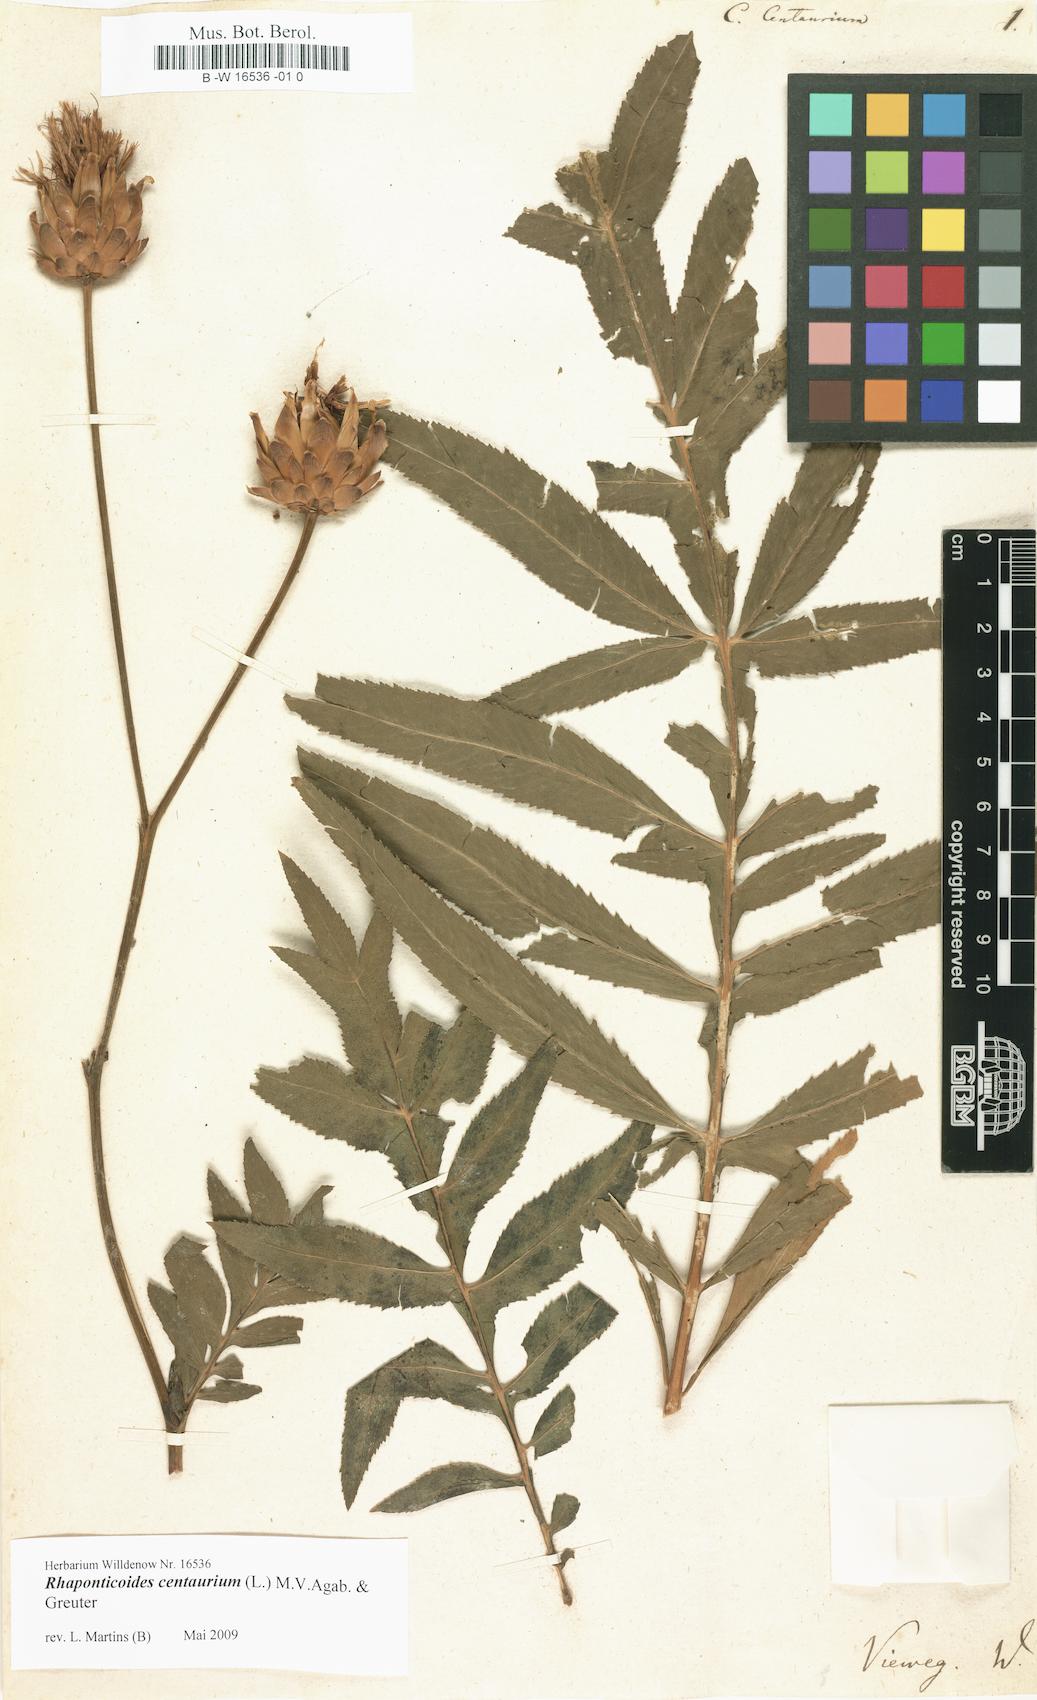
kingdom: Plantae
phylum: Tracheophyta
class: Magnoliopsida
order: Asterales
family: Asteraceae
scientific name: Asteraceae
